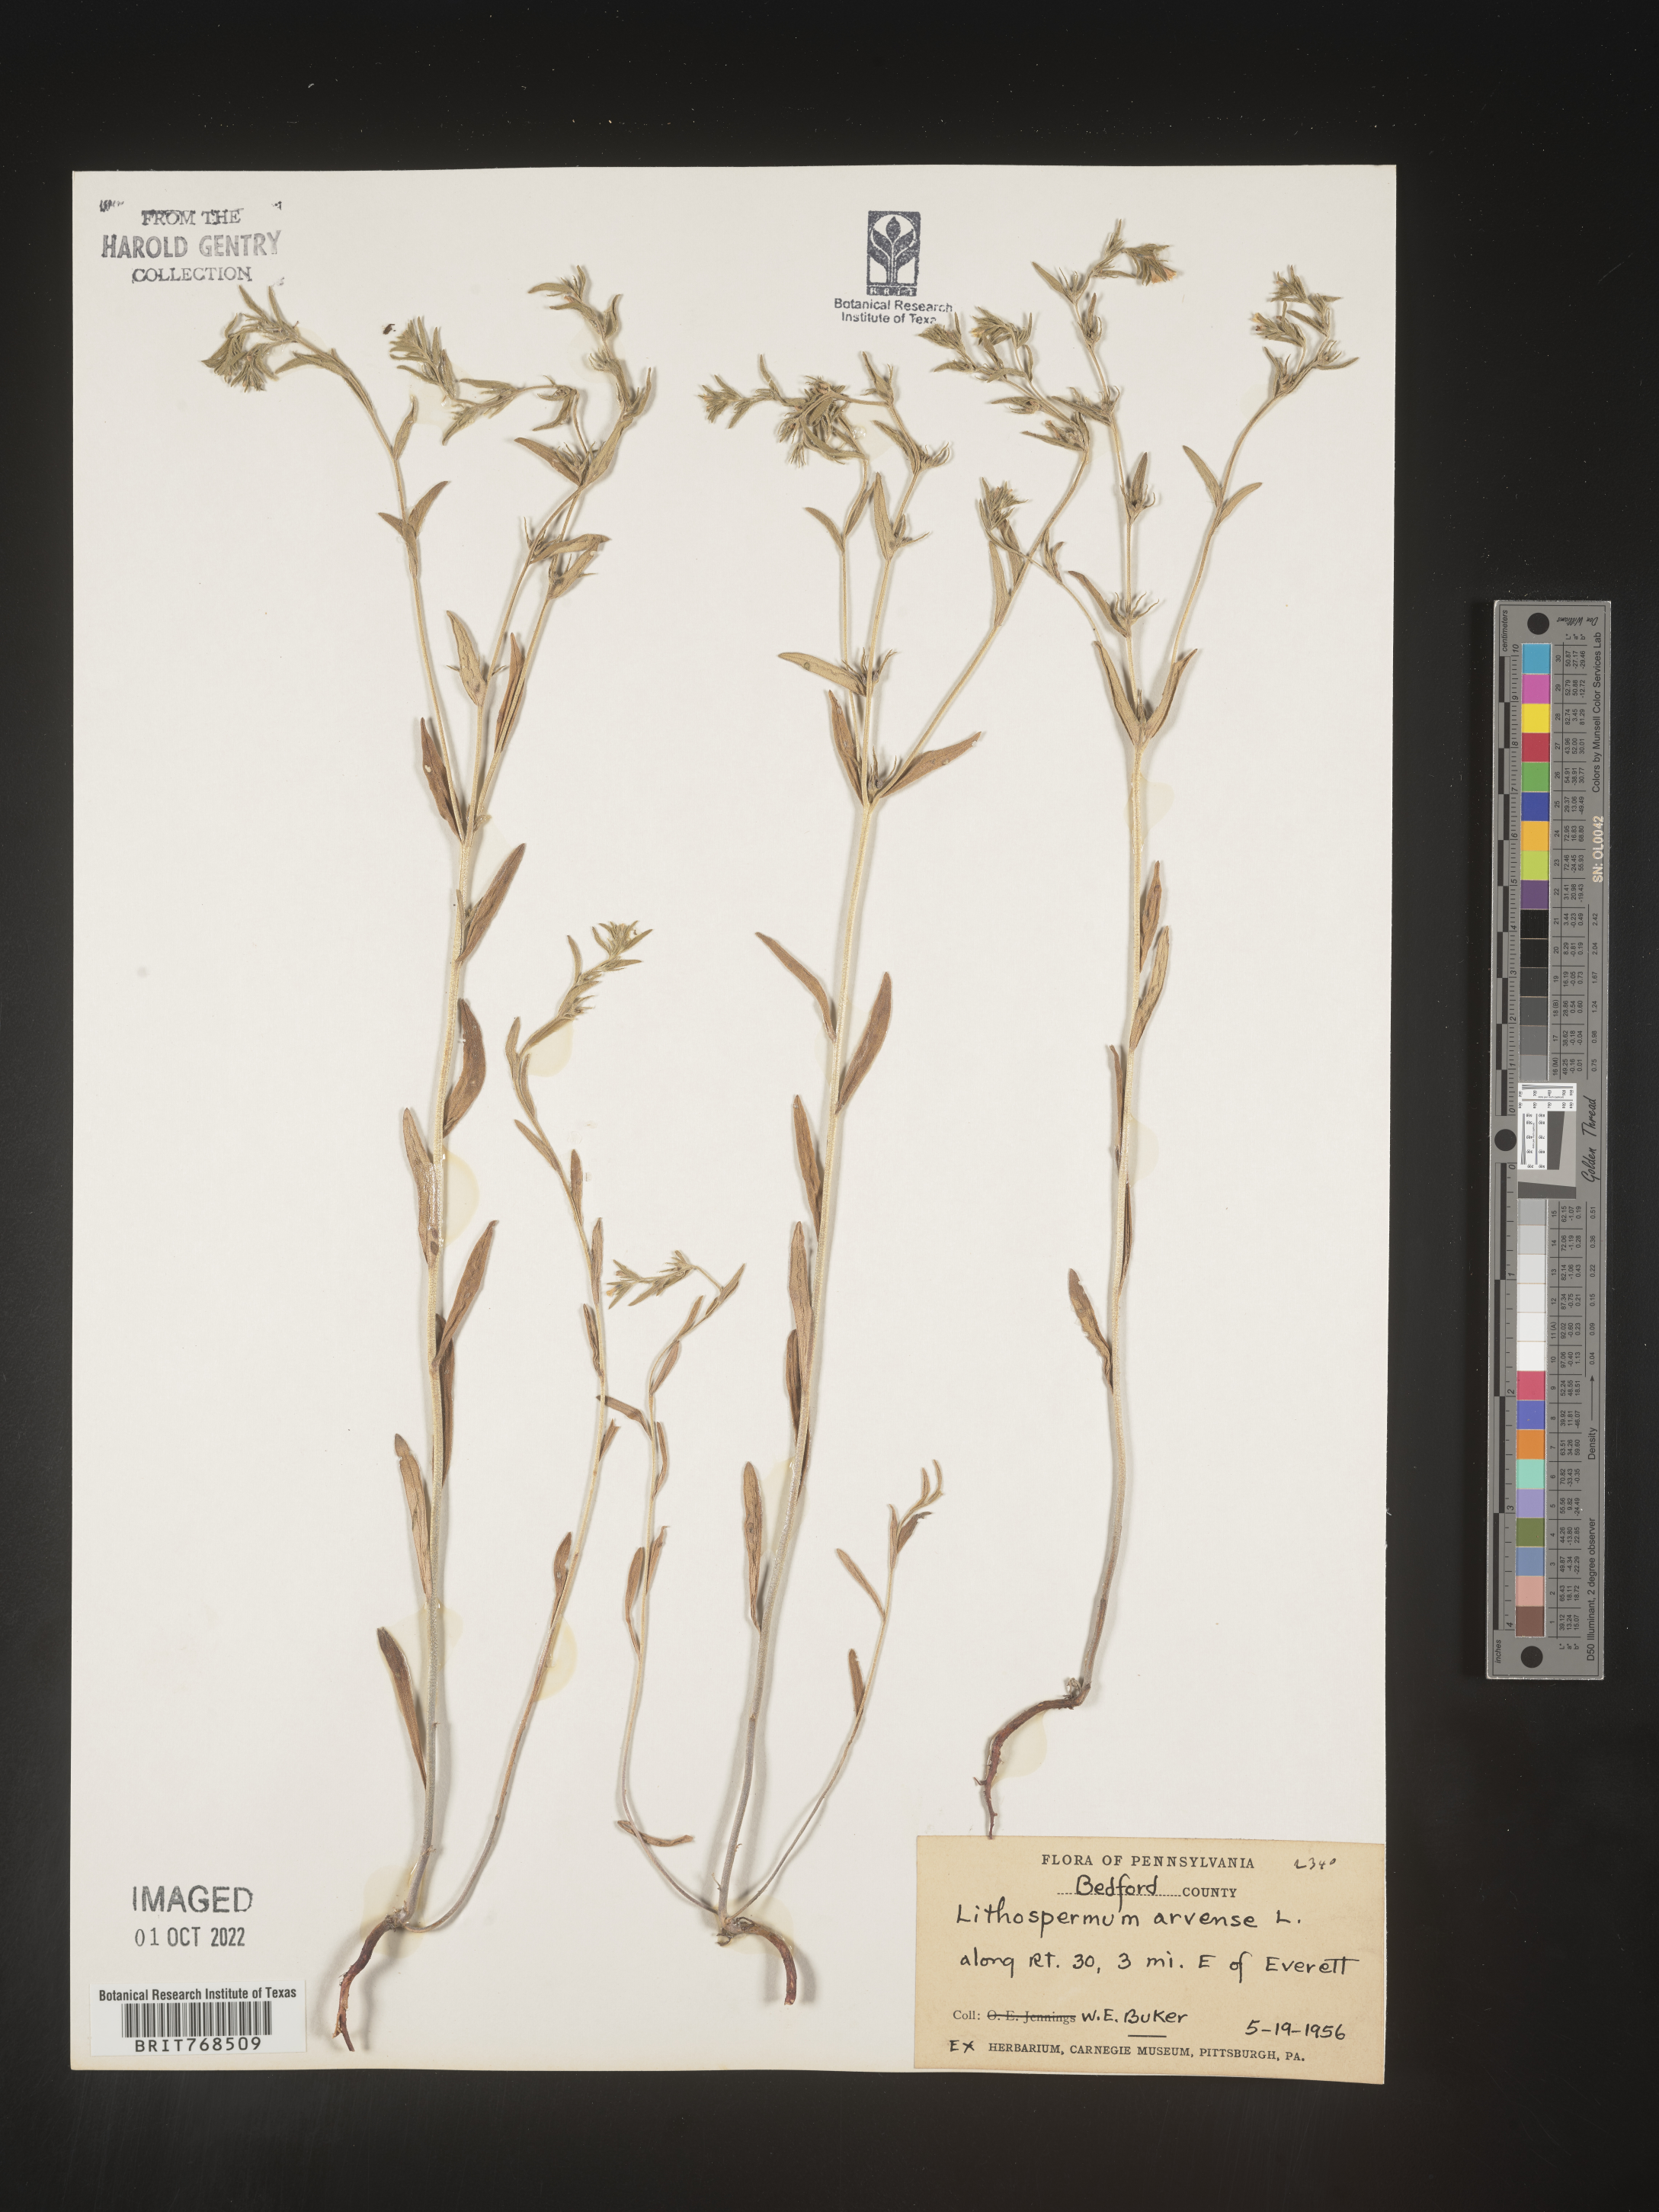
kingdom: Plantae
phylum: Tracheophyta
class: Magnoliopsida
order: Boraginales
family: Boraginaceae
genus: Lithospermum
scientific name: Lithospermum
